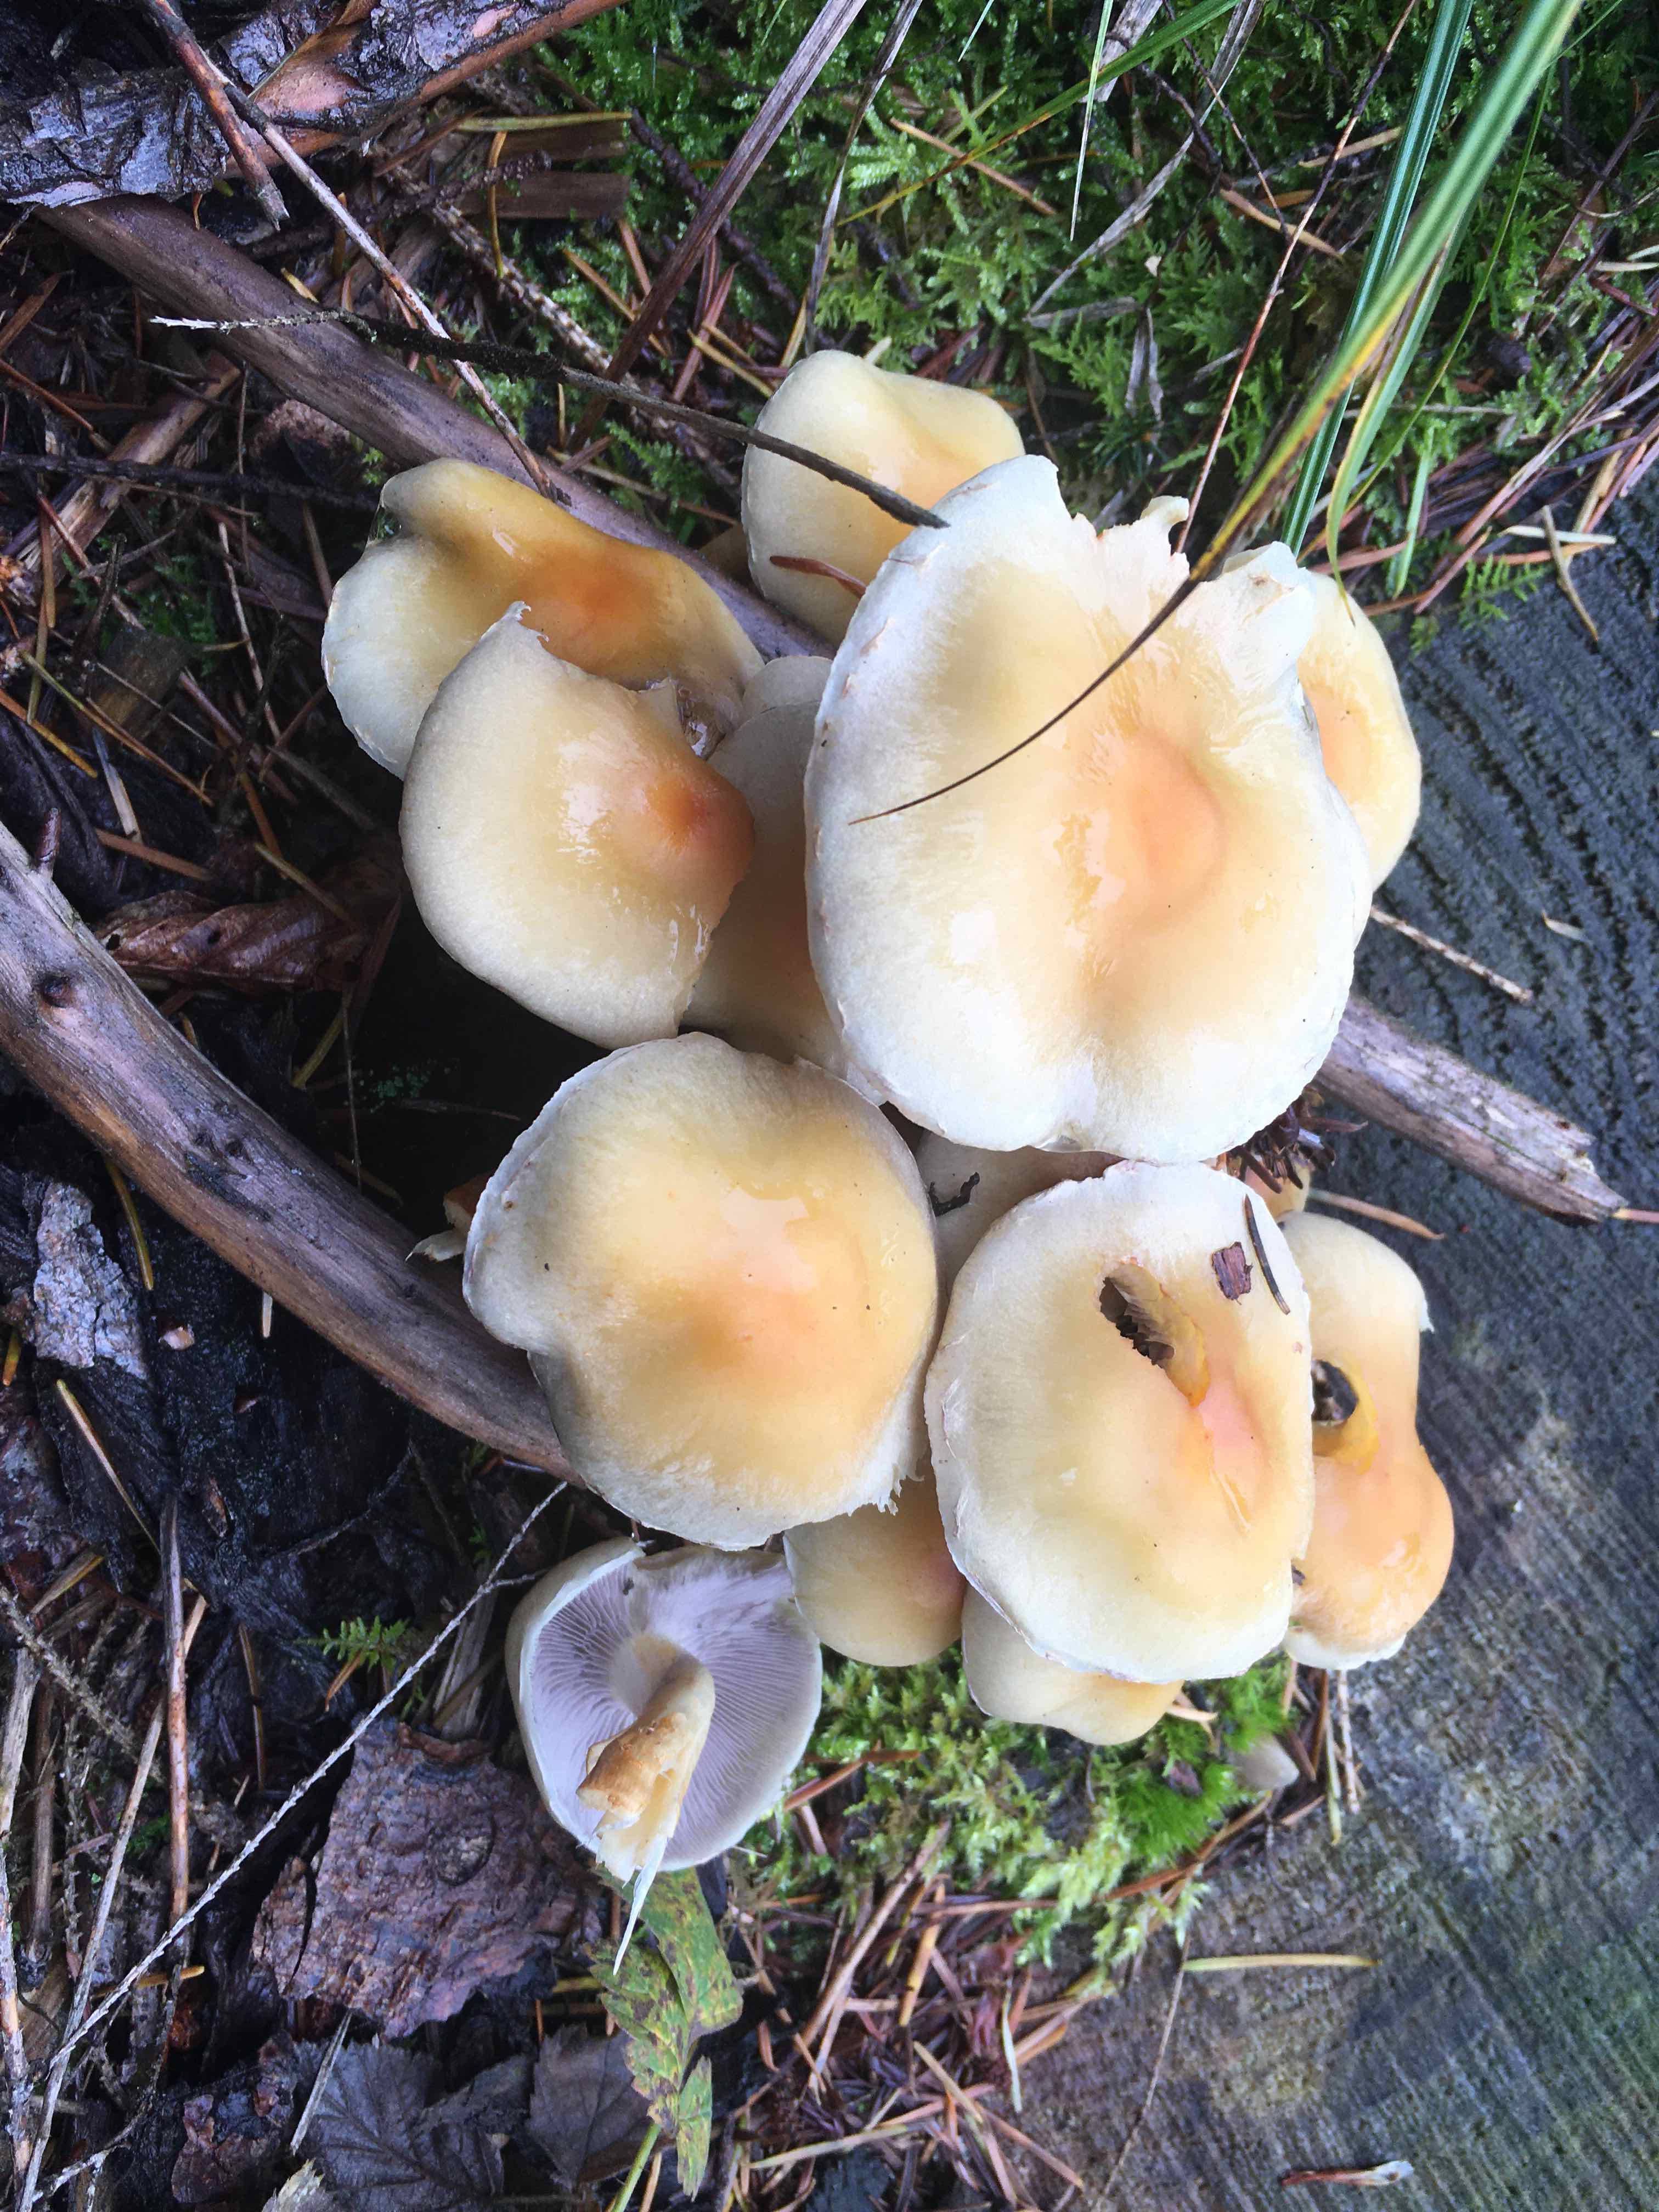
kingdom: Fungi
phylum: Basidiomycota
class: Agaricomycetes
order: Agaricales
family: Strophariaceae
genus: Hypholoma
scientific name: Hypholoma capnoides
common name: gran-svovlhat
